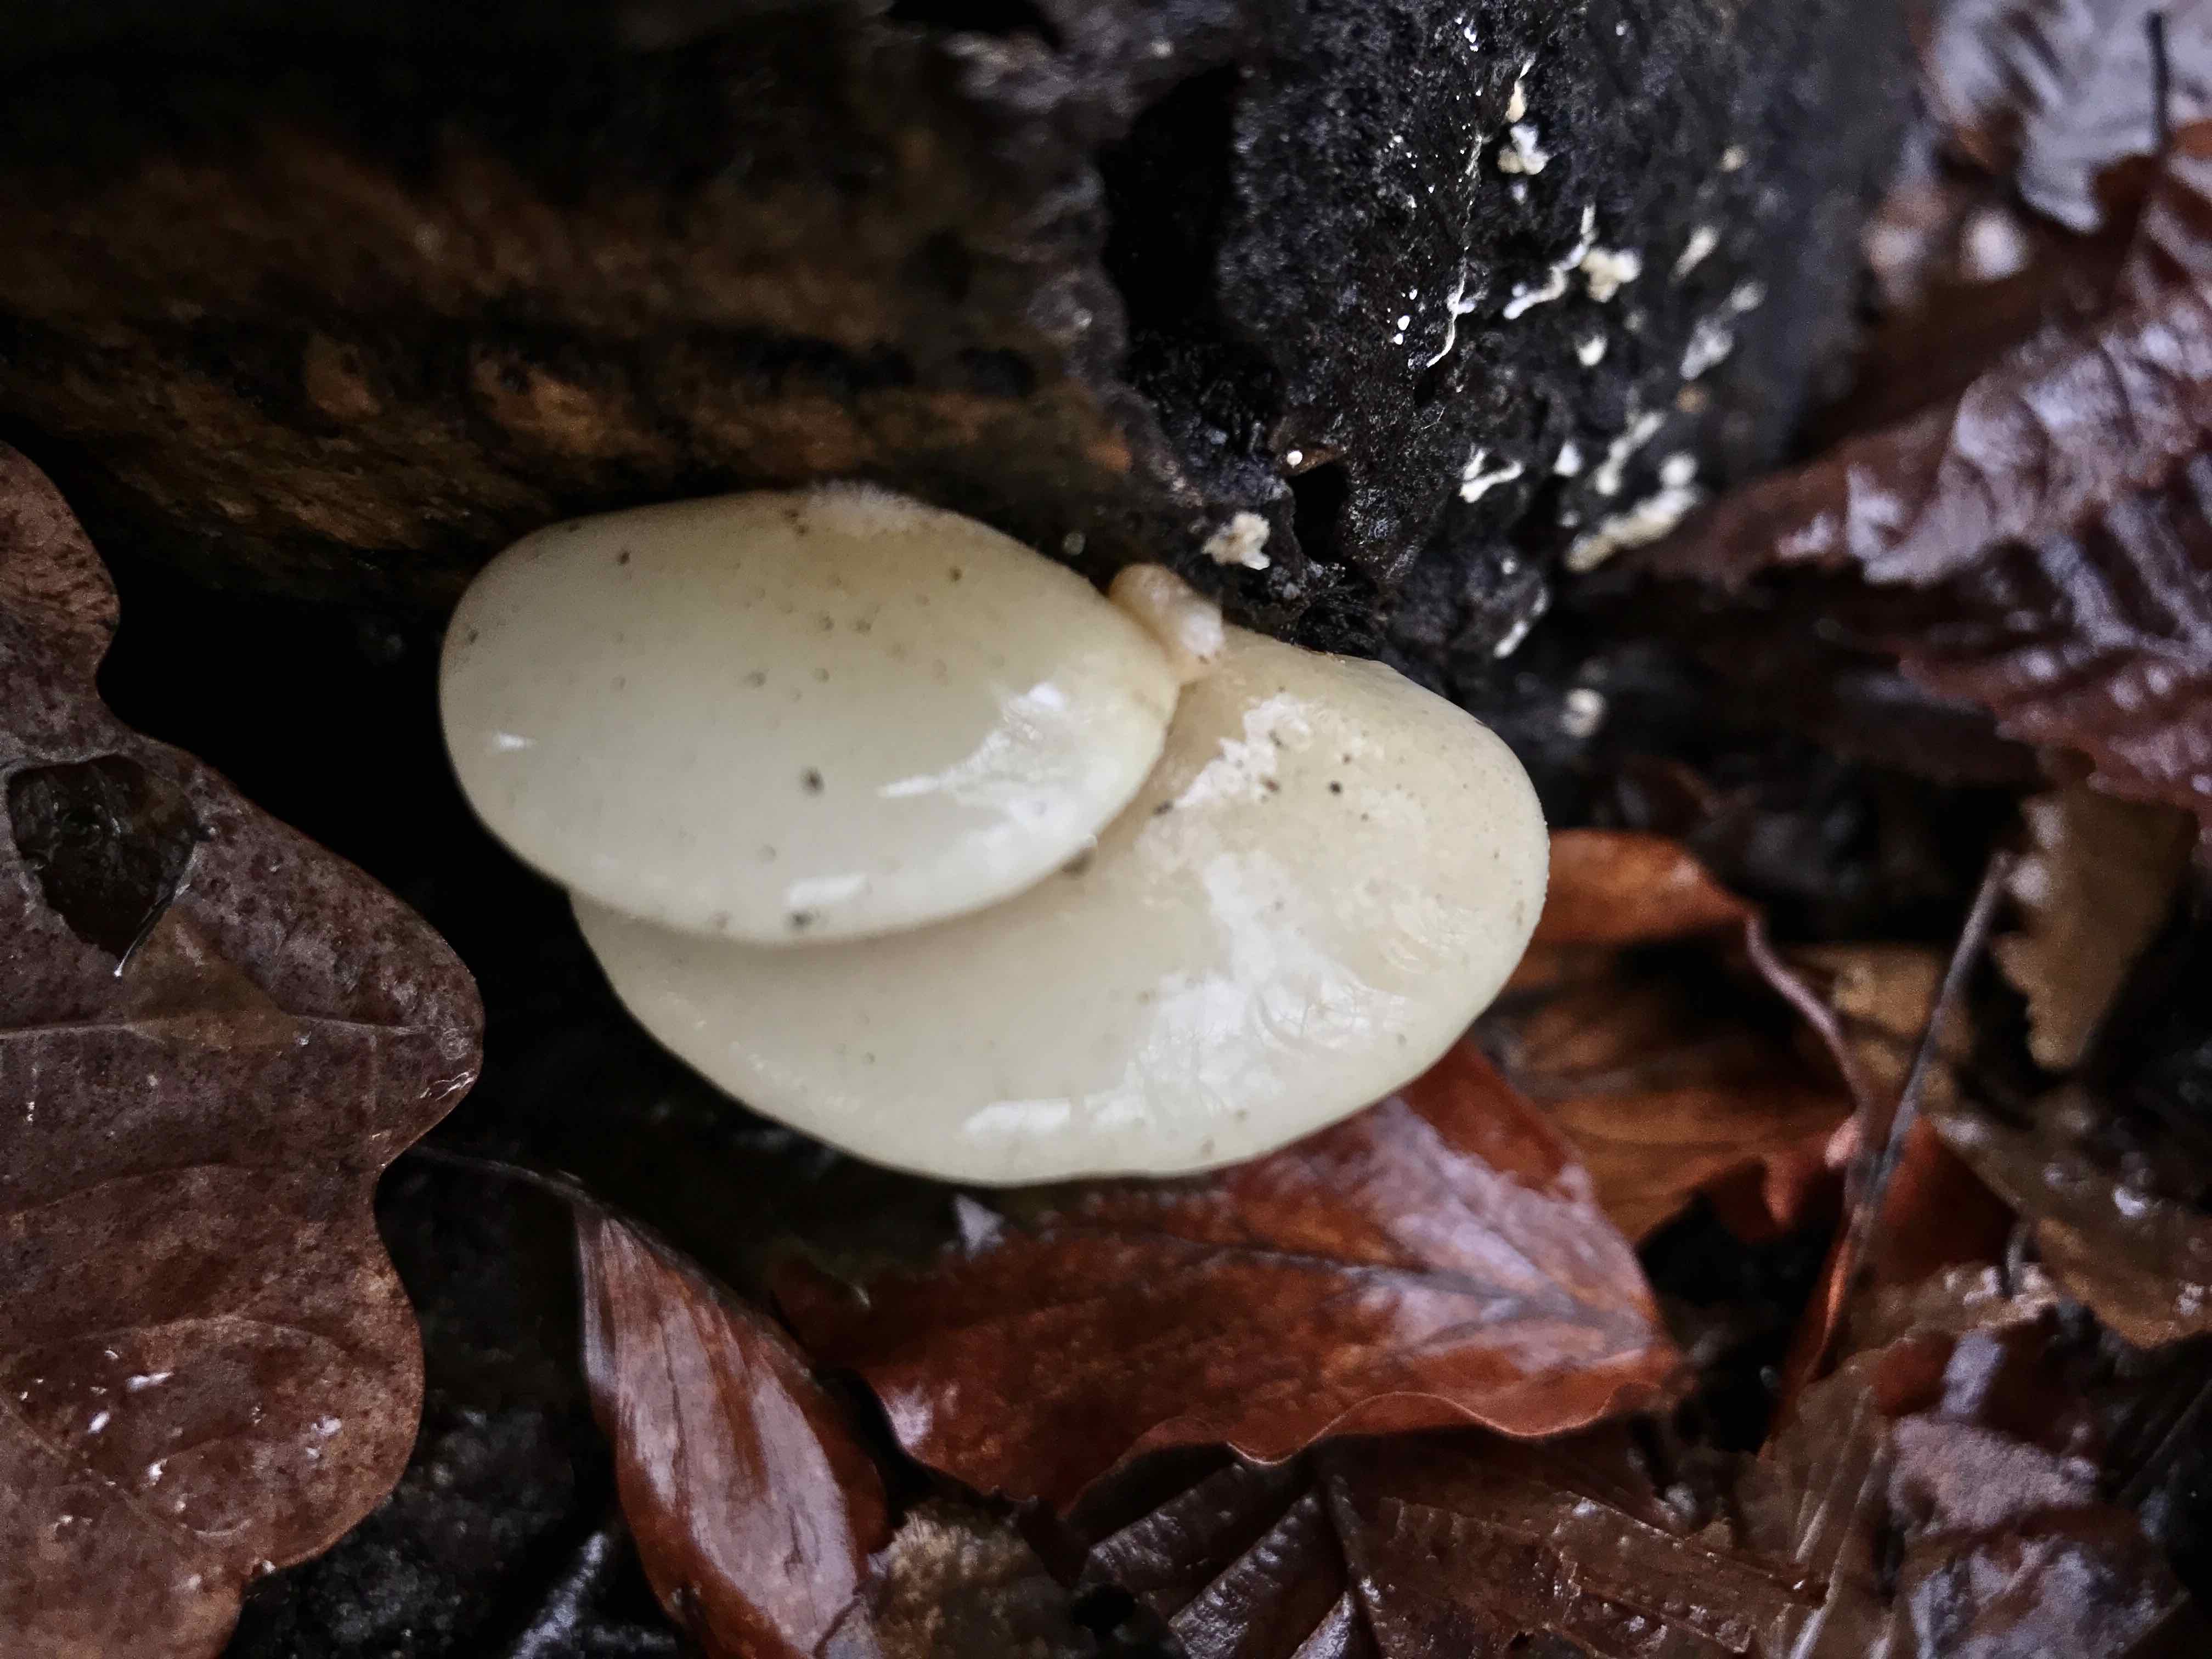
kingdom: Fungi
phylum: Basidiomycota
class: Agaricomycetes
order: Agaricales
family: Crepidotaceae
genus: Crepidotus
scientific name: Crepidotus mollis
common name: blød muslingesvamp
